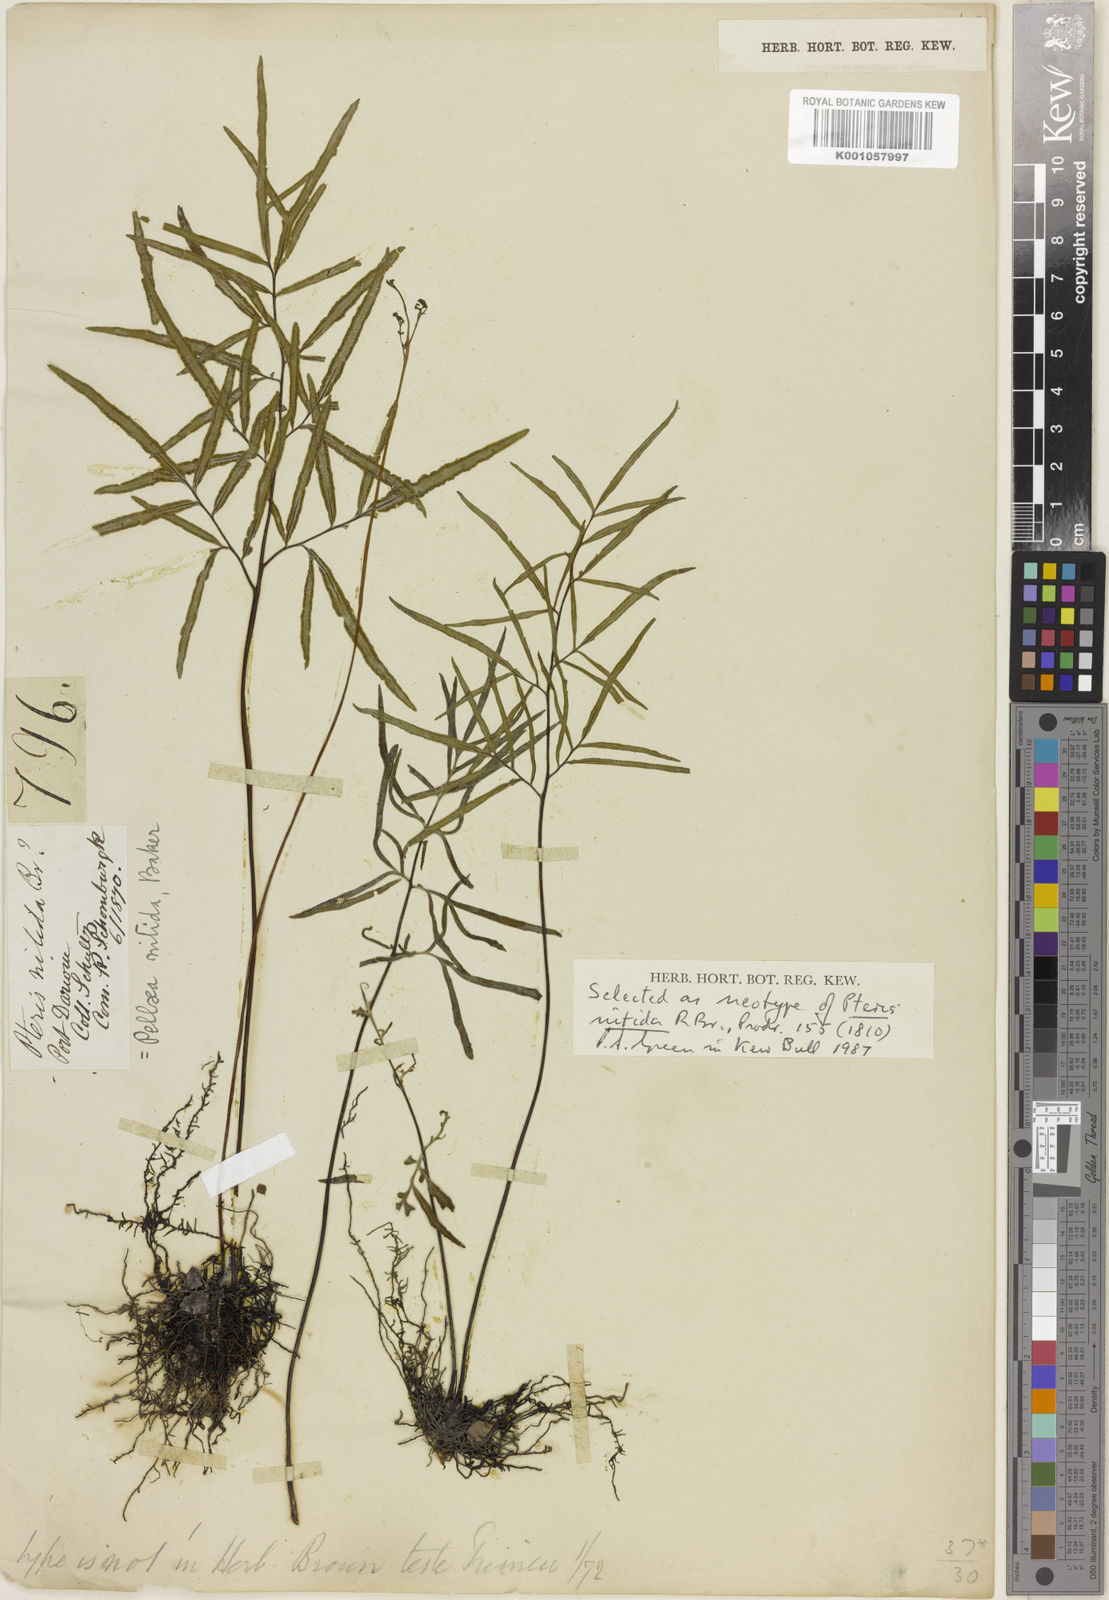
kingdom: Plantae
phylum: Tracheophyta
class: Polypodiopsida
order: Polypodiales
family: Pteridaceae
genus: Cheilanthes
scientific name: Cheilanthes nitida
